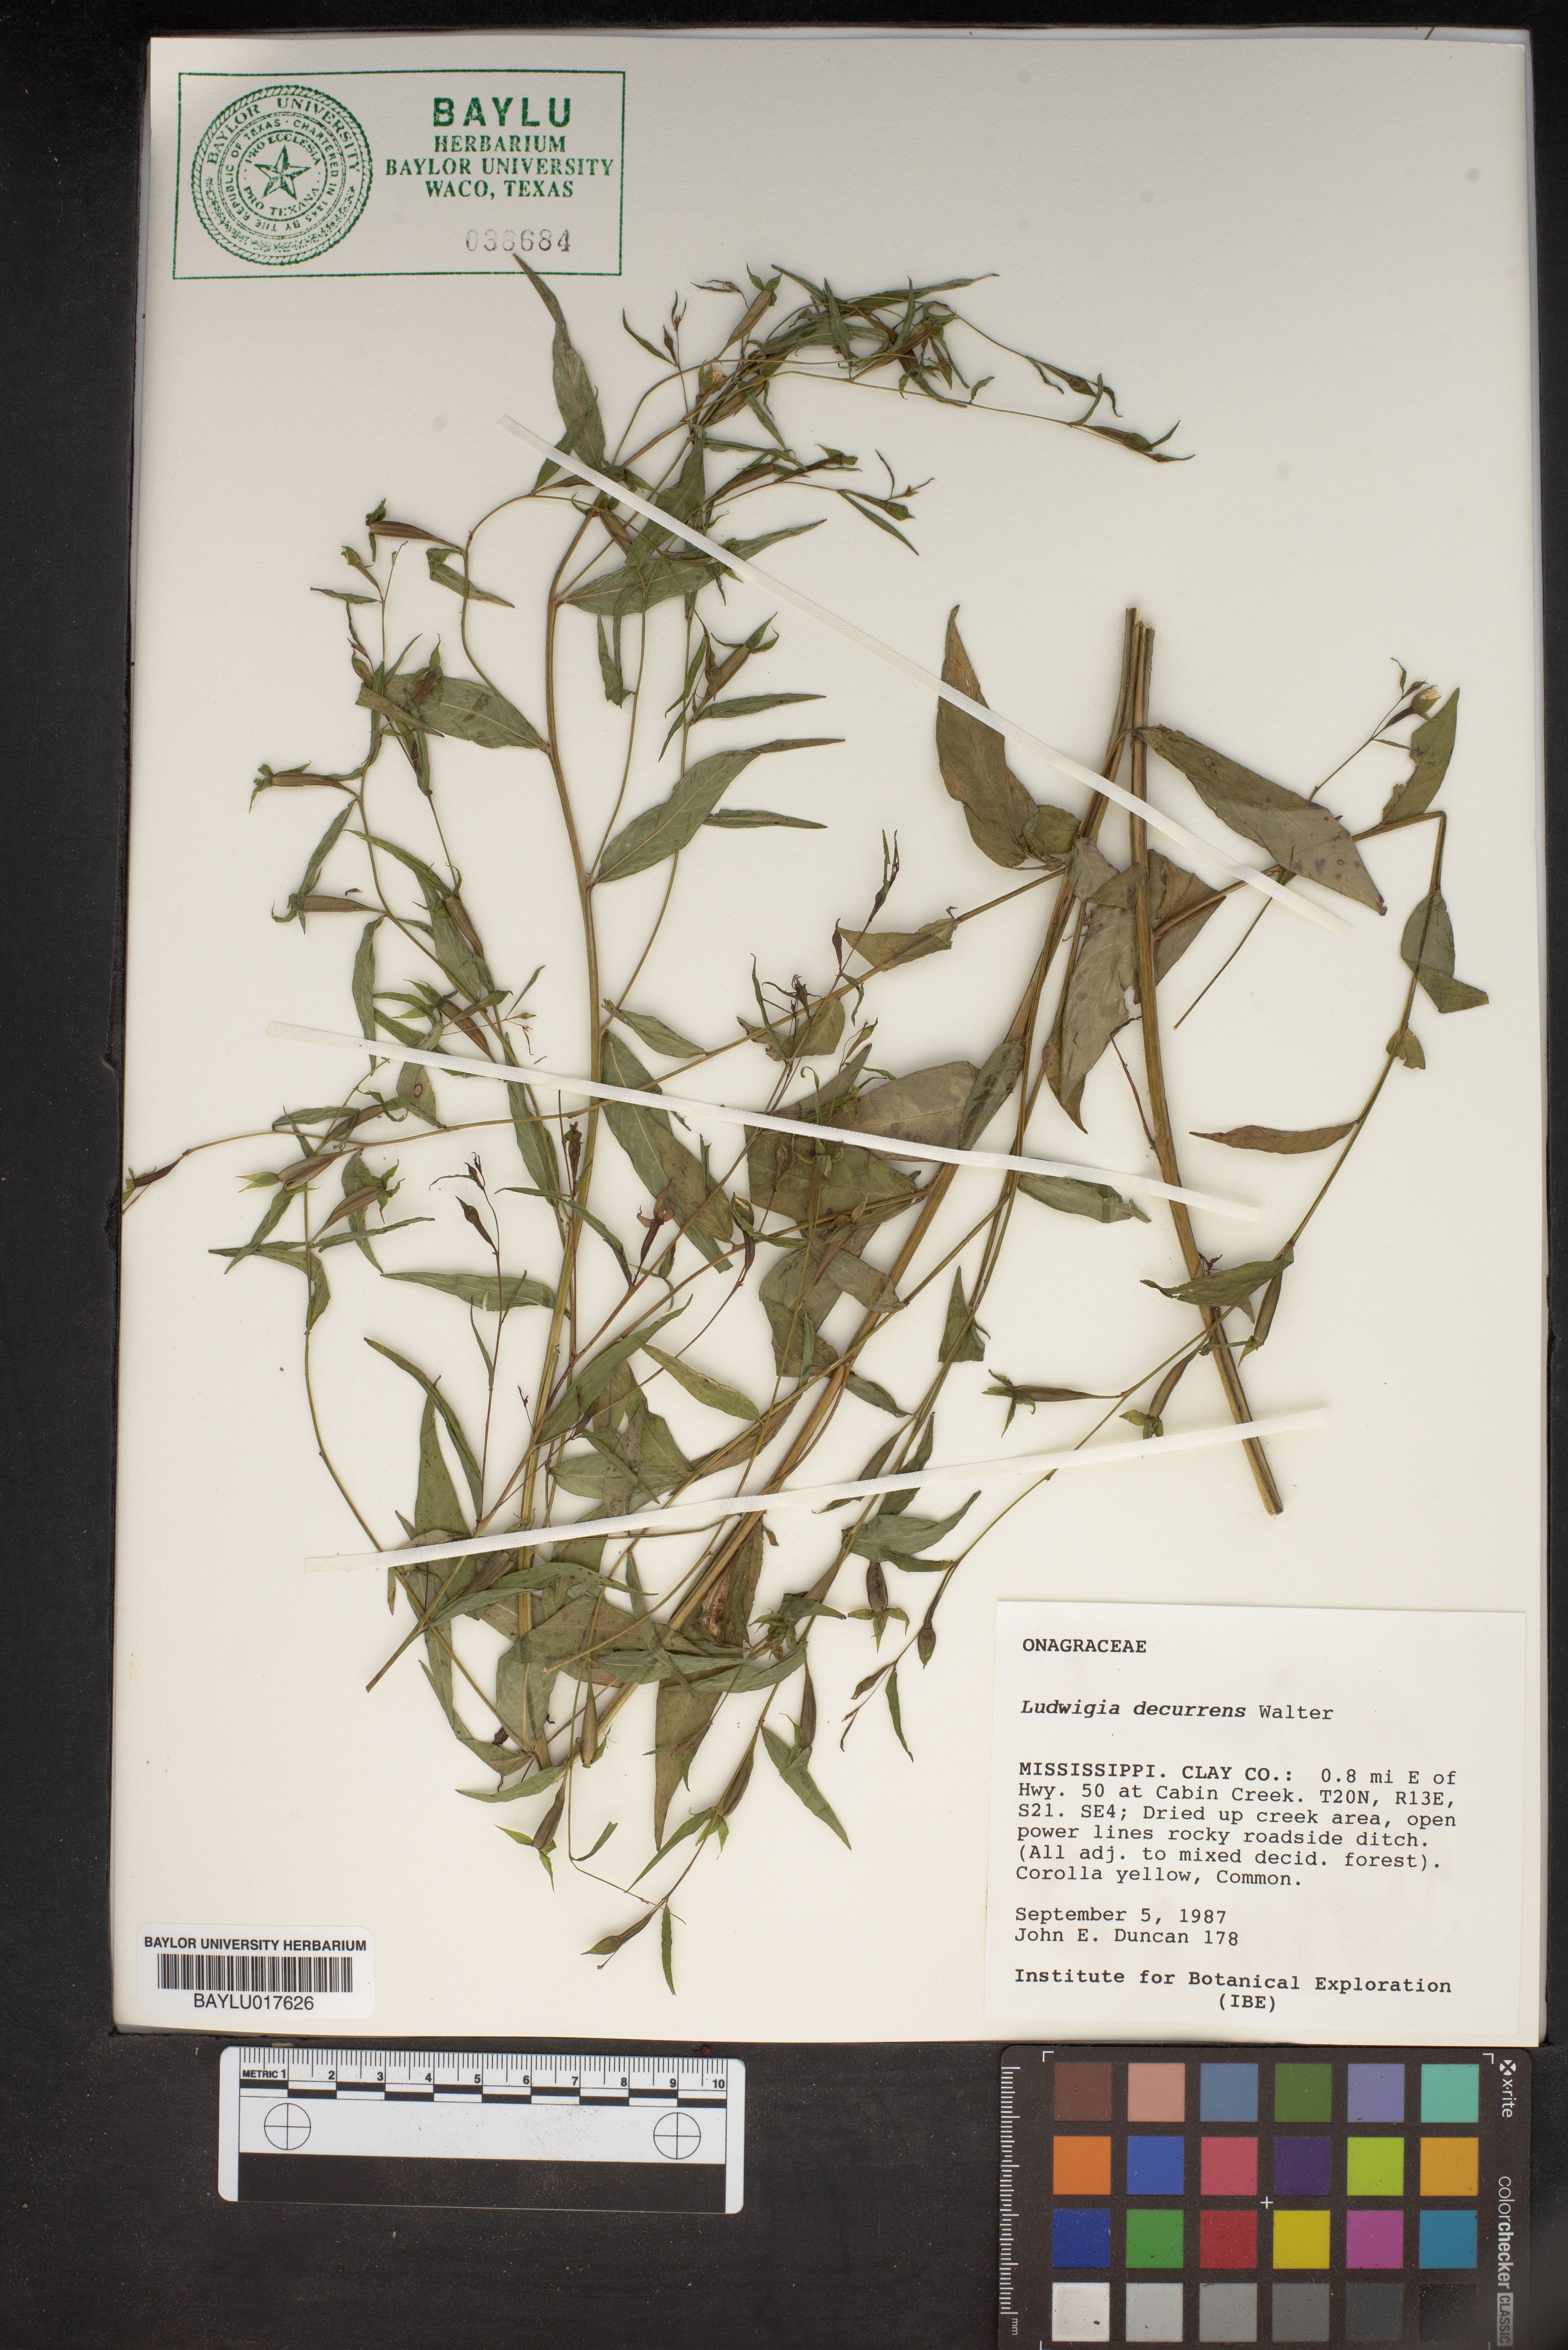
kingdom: Plantae
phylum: Tracheophyta
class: Magnoliopsida
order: Myrtales
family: Onagraceae
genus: Ludwigia
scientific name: Ludwigia decurrens
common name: Winged water-primrose
